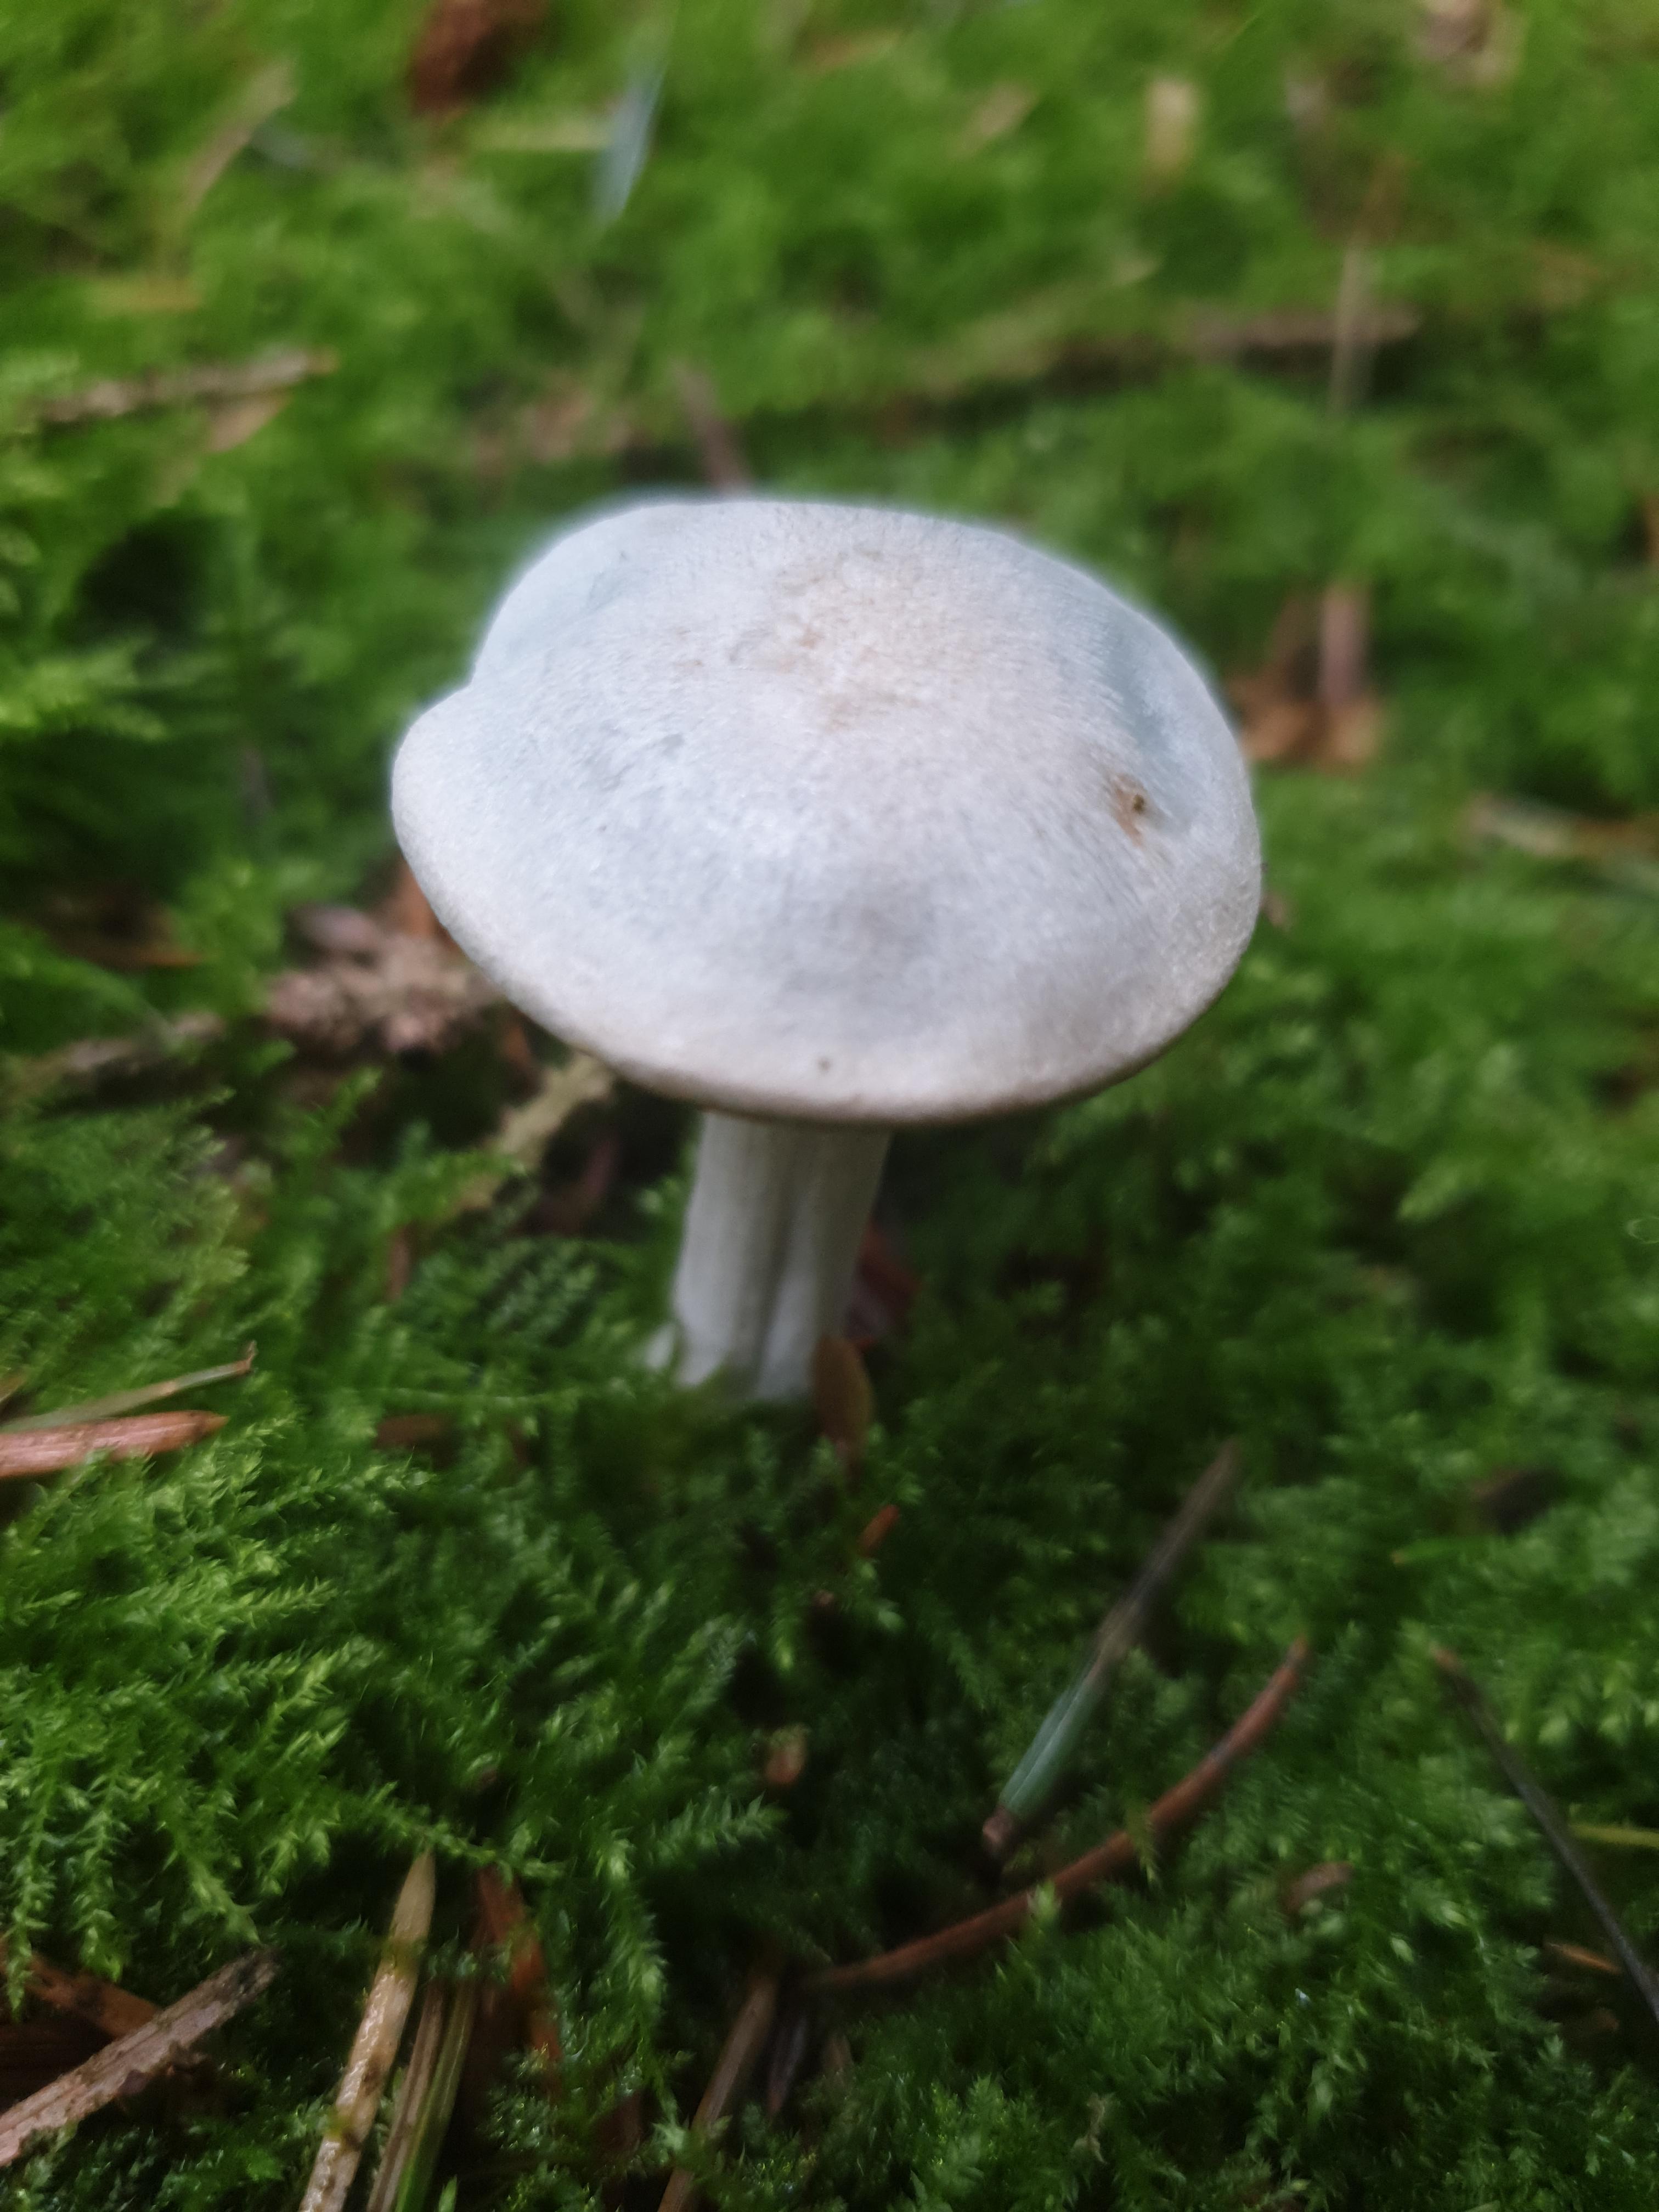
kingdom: Fungi
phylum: Basidiomycota
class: Agaricomycetes
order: Agaricales
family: Tricholomataceae
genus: Clitocybe
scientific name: Clitocybe odora
